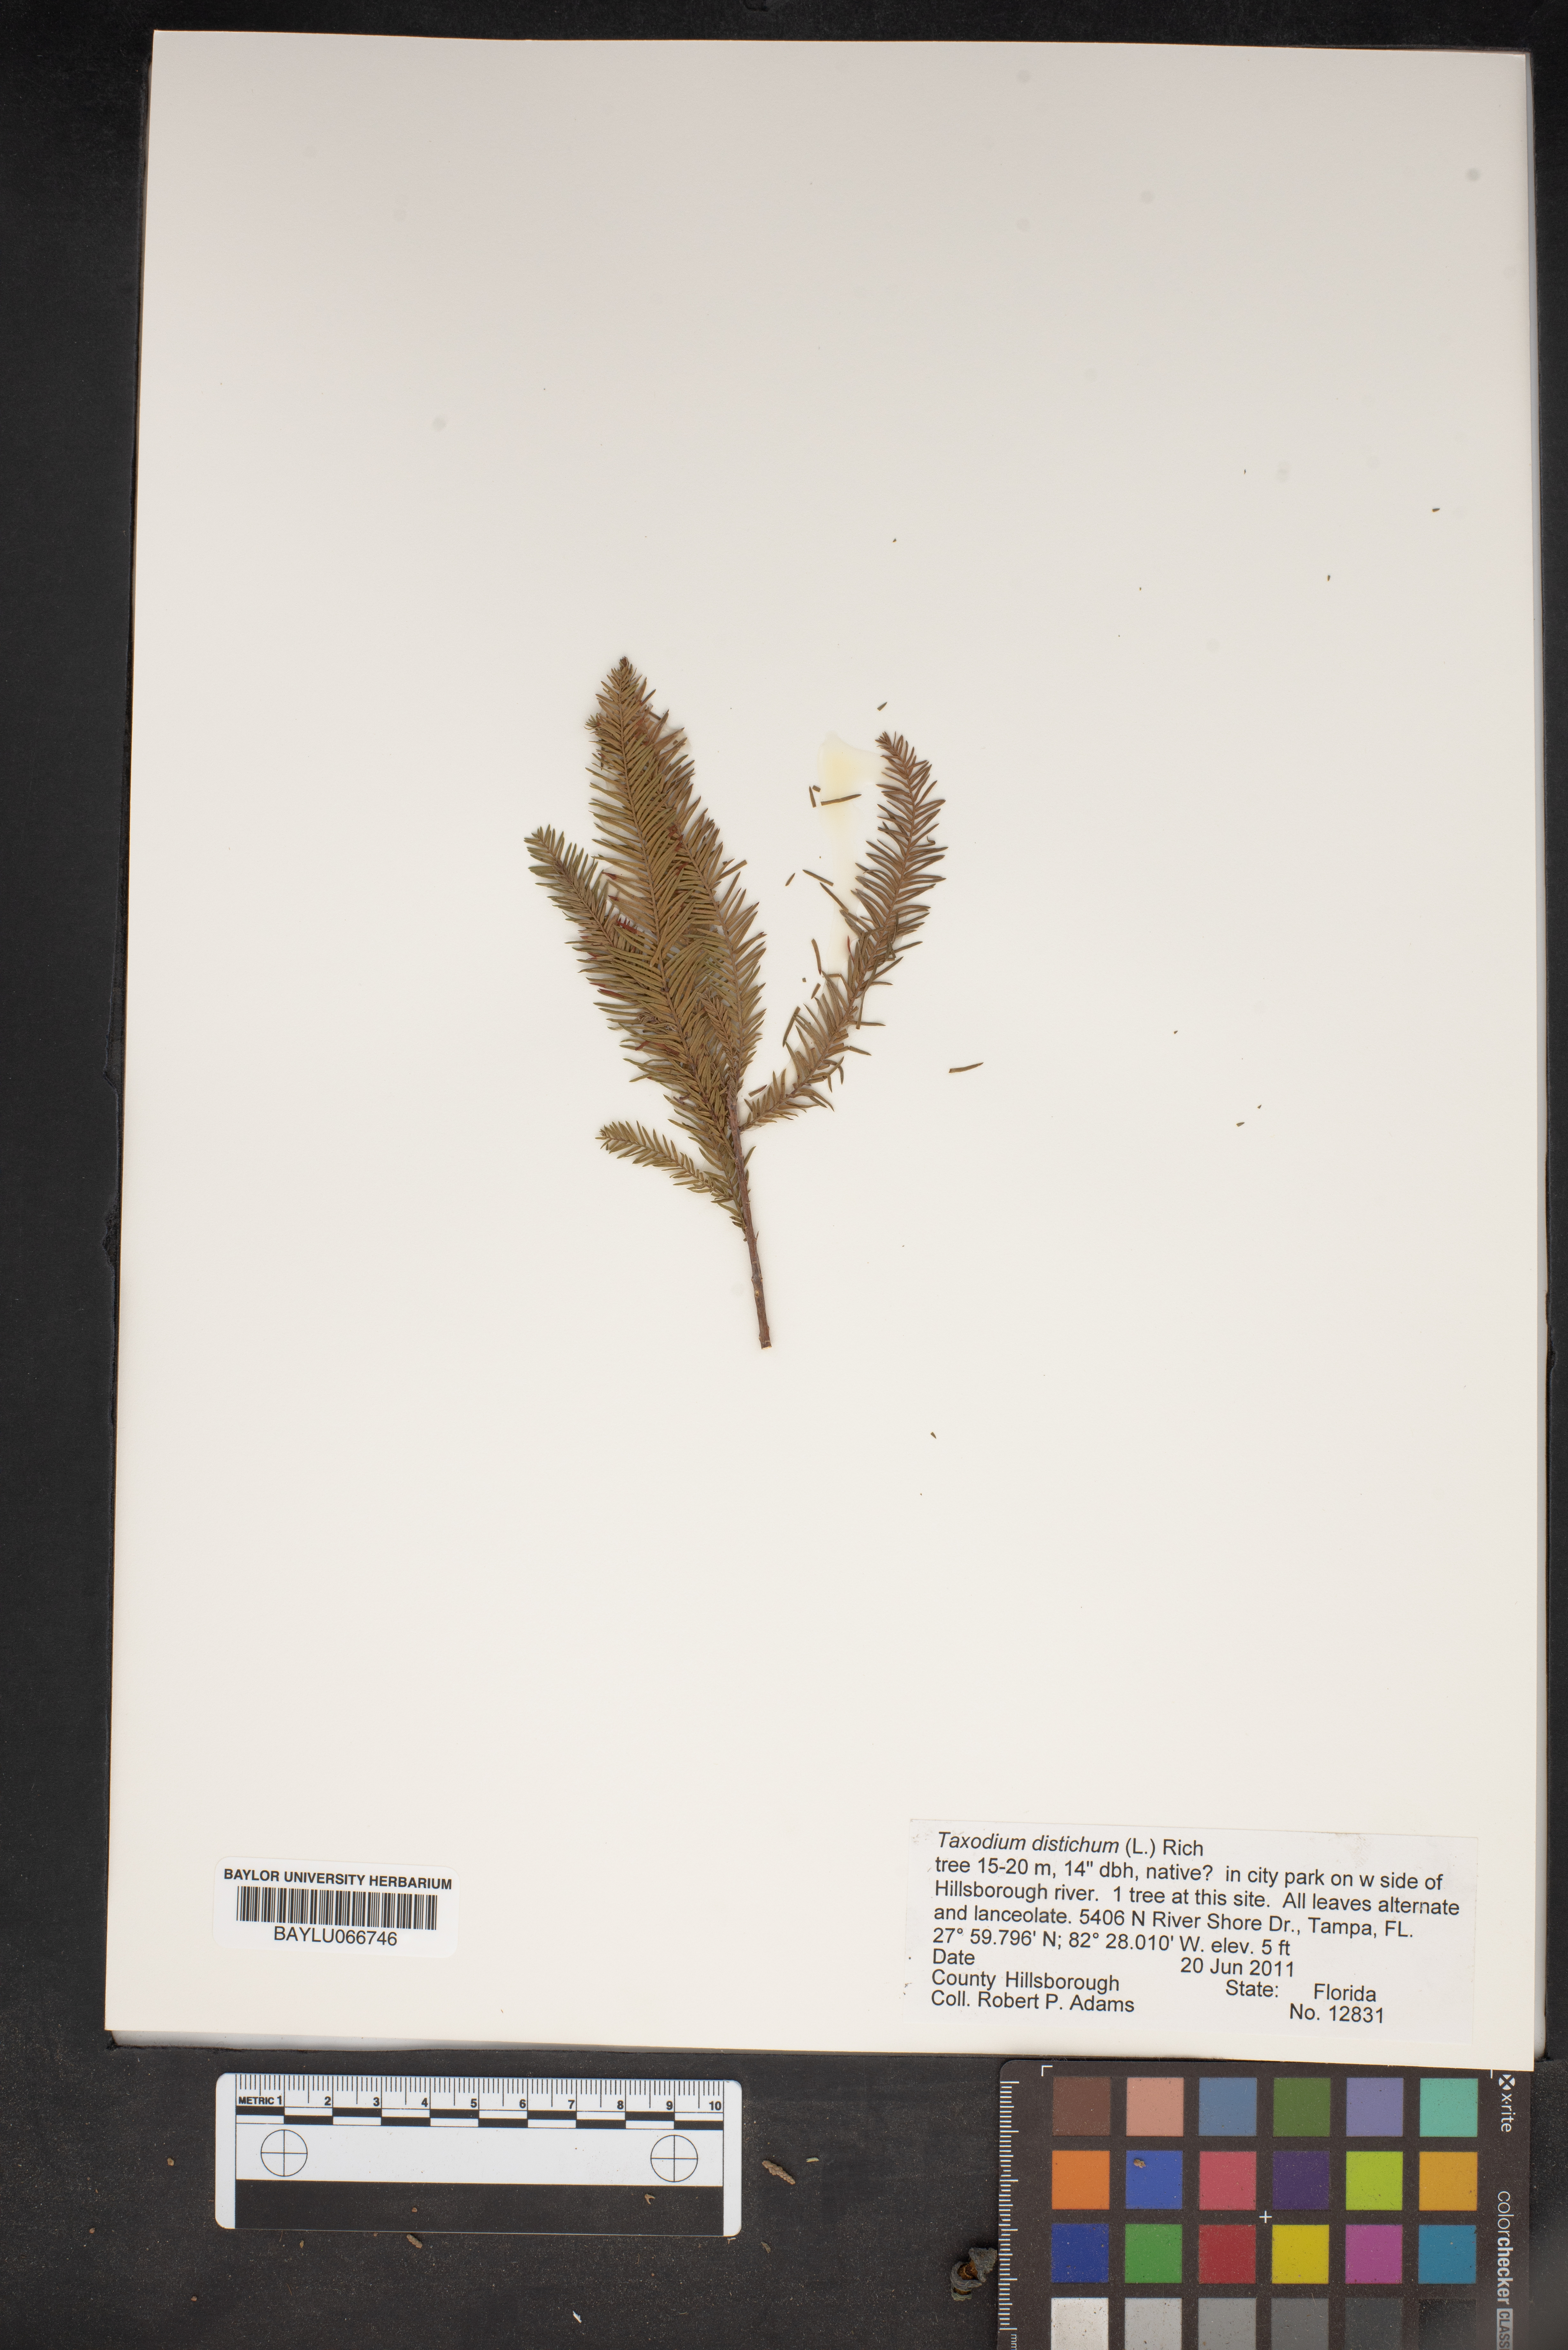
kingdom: Plantae
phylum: Tracheophyta
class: Pinopsida
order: Pinales
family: Cupressaceae
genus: Taxodium
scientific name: Taxodium distichum
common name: Bald cypress
